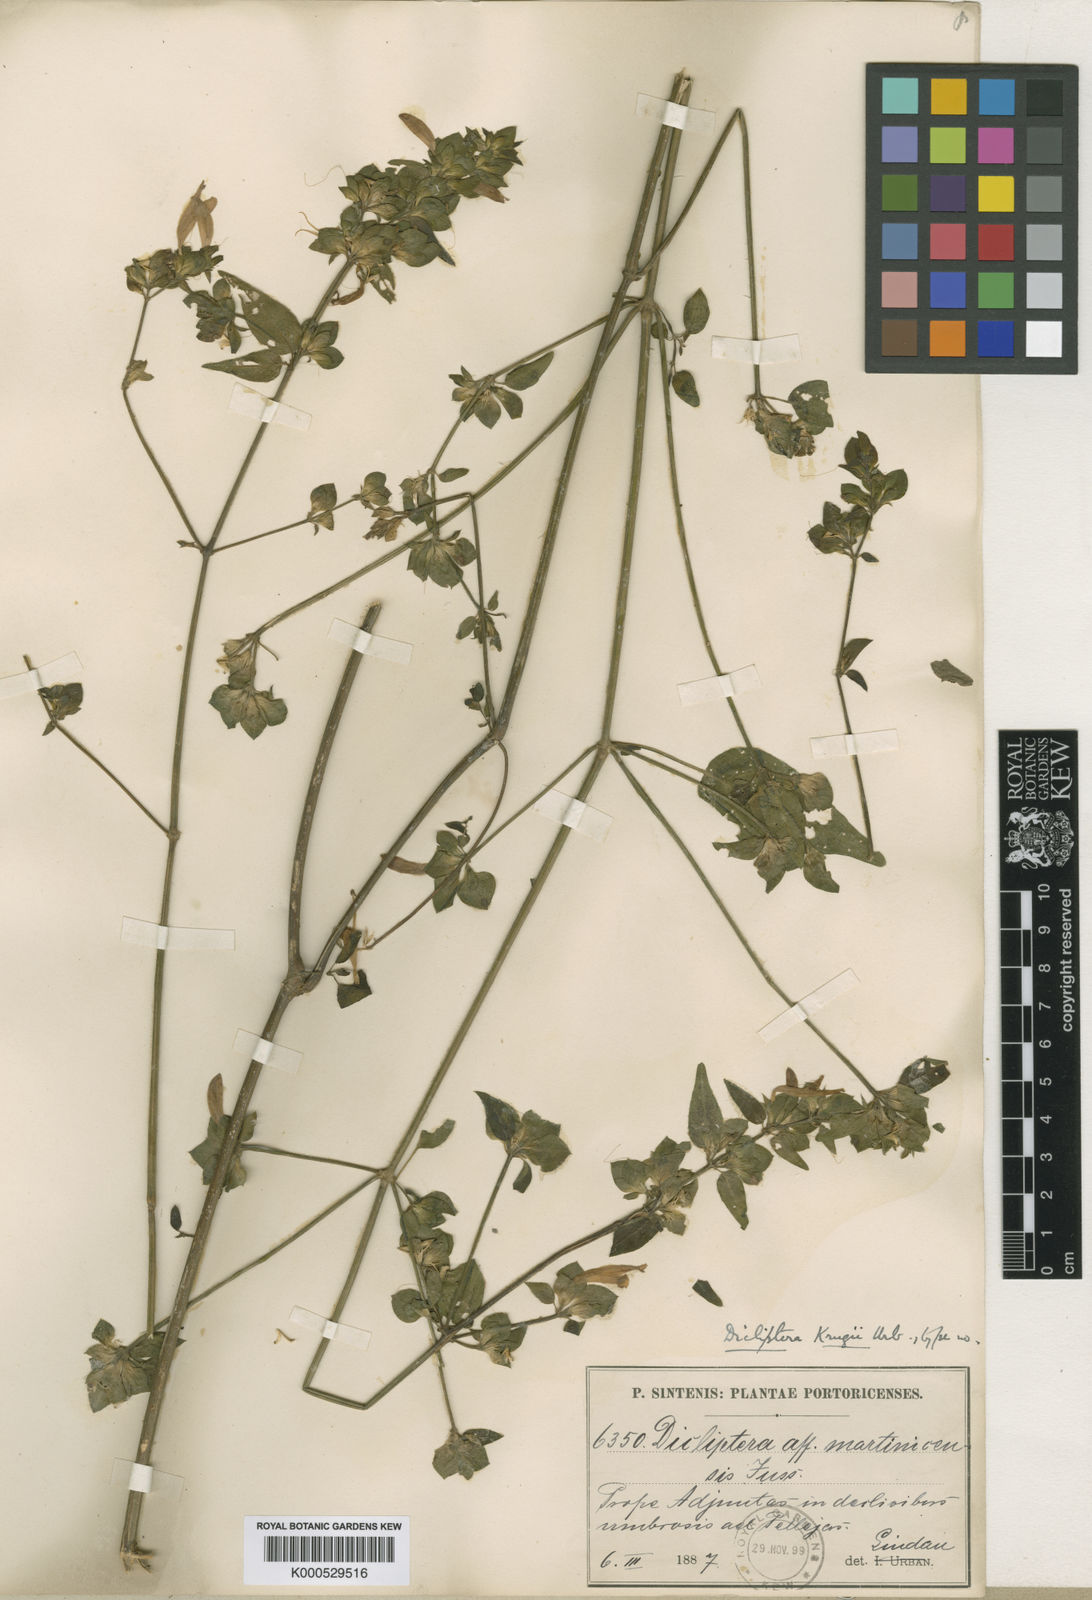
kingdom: Plantae
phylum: Tracheophyta
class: Magnoliopsida
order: Lamiales
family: Acanthaceae
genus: Dicliptera
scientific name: Dicliptera krugii
